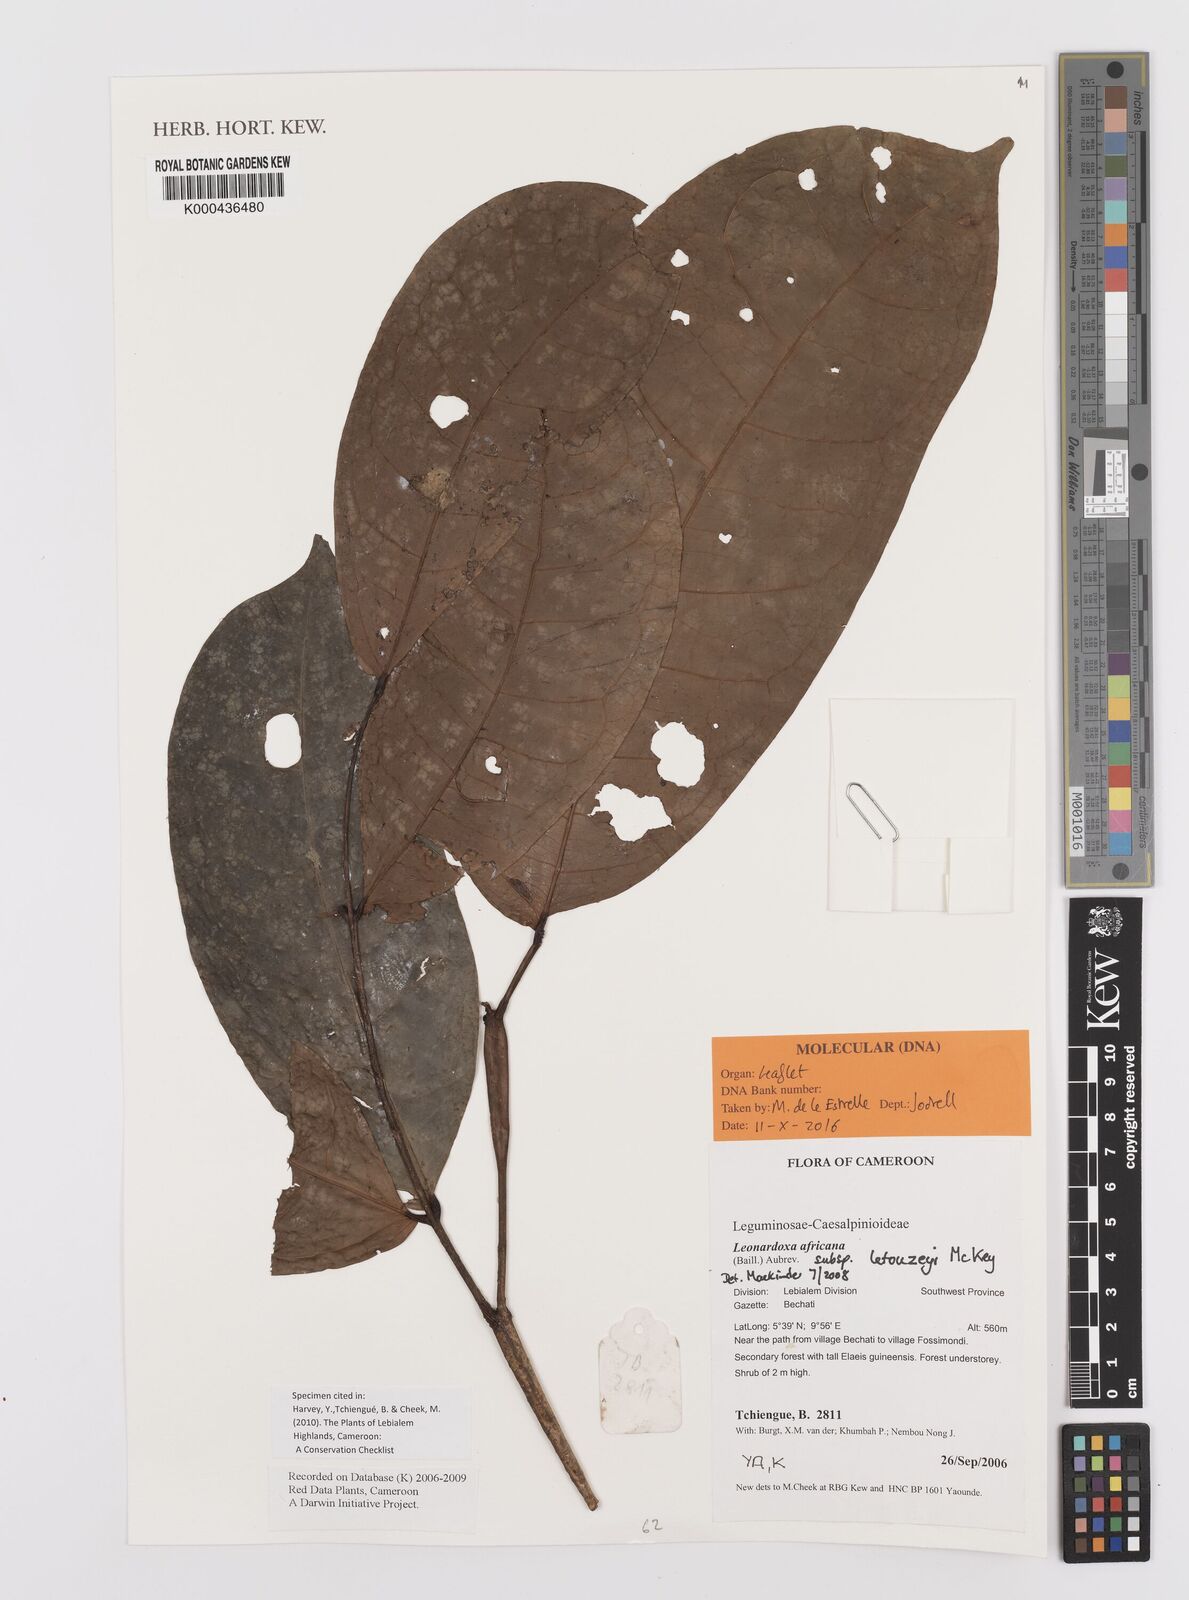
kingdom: Plantae
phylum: Tracheophyta
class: Magnoliopsida
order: Fabales
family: Fabaceae
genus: Leonardoxa
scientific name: Leonardoxa
